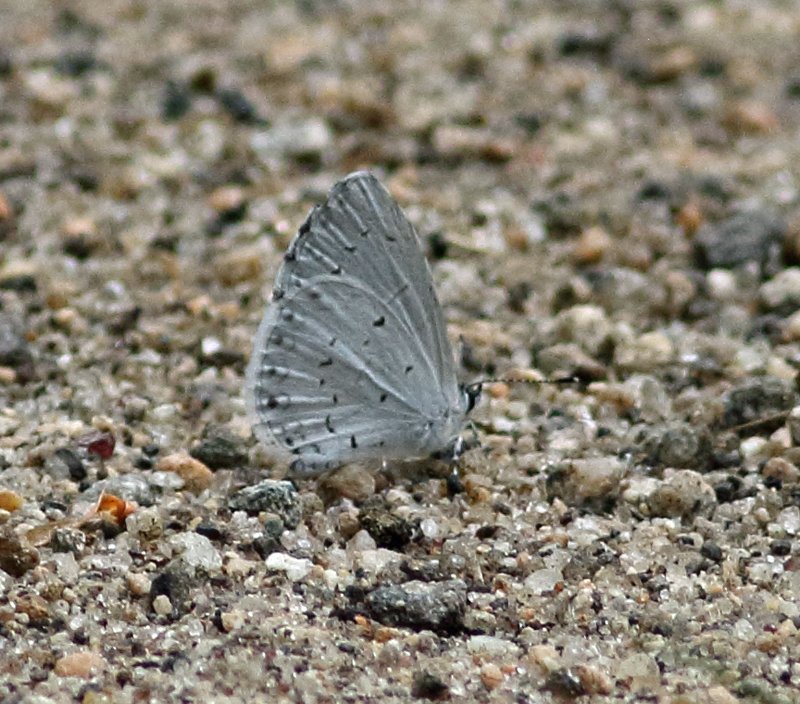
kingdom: Animalia
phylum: Arthropoda
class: Insecta
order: Lepidoptera
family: Lycaenidae
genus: Cyaniris
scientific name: Cyaniris neglecta
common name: Summer Azure
